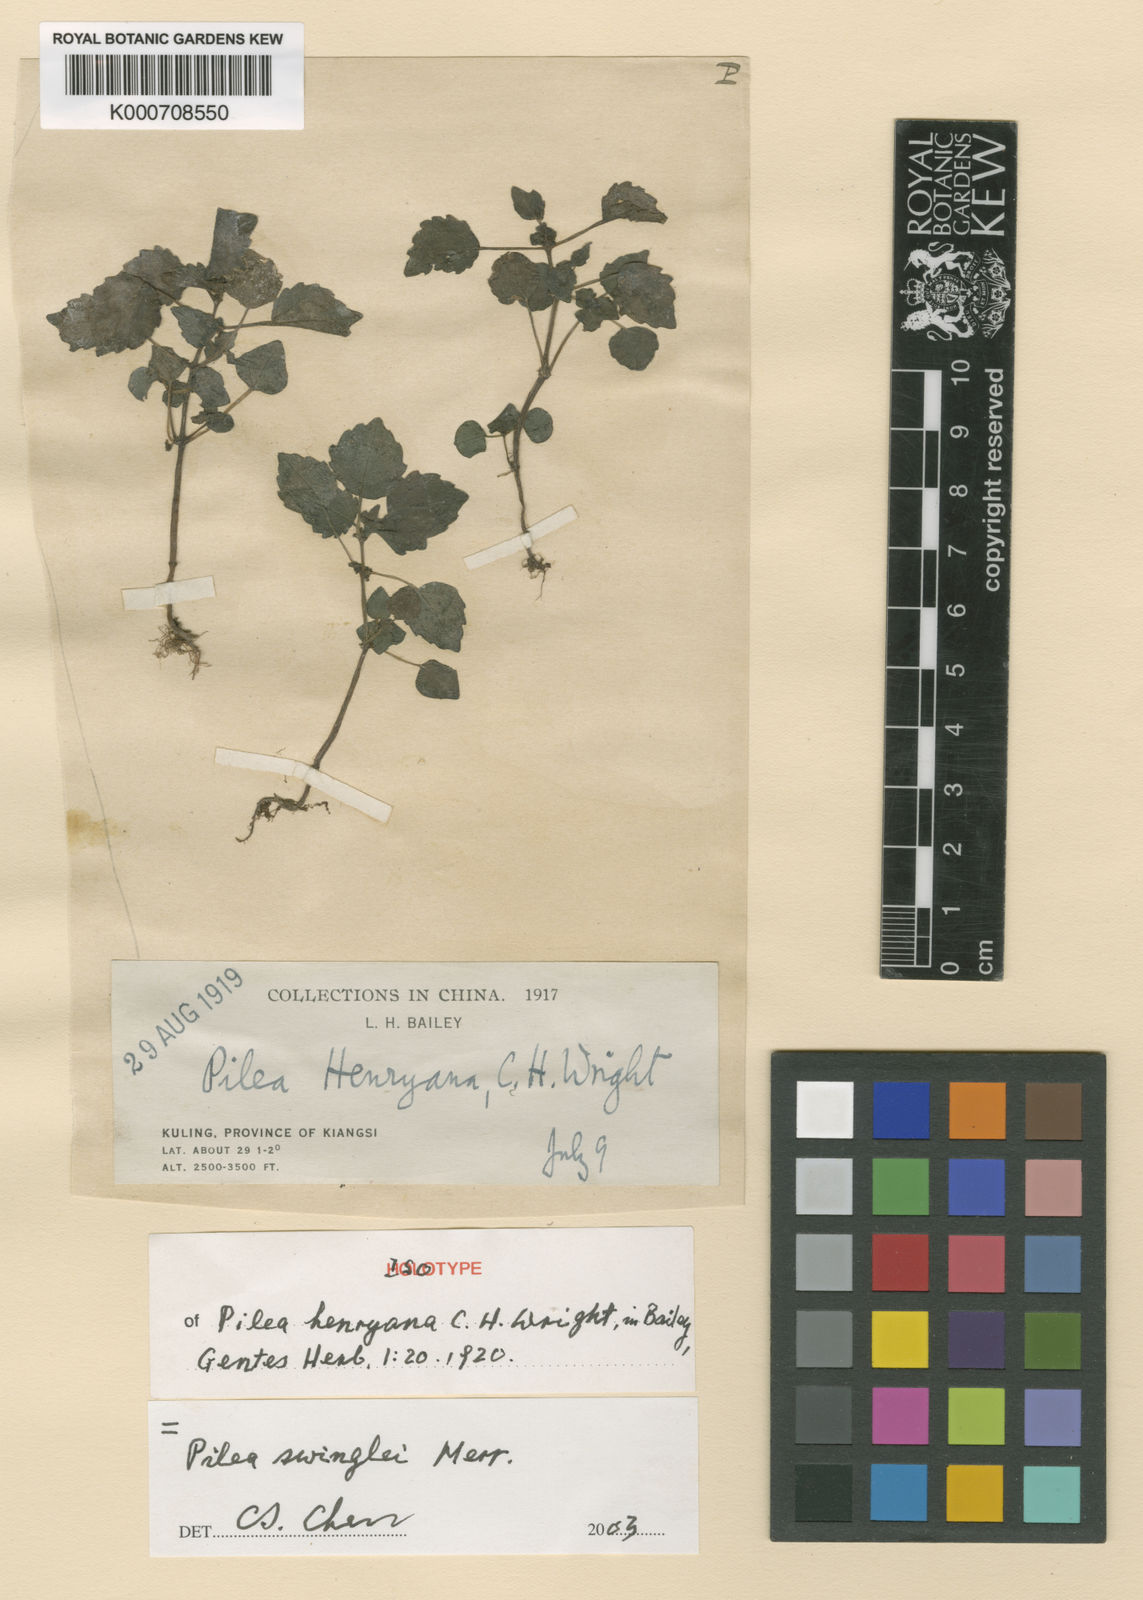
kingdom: Plantae
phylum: Tracheophyta
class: Magnoliopsida
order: Rosales
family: Urticaceae
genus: Pilea
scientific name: Pilea swinglei
